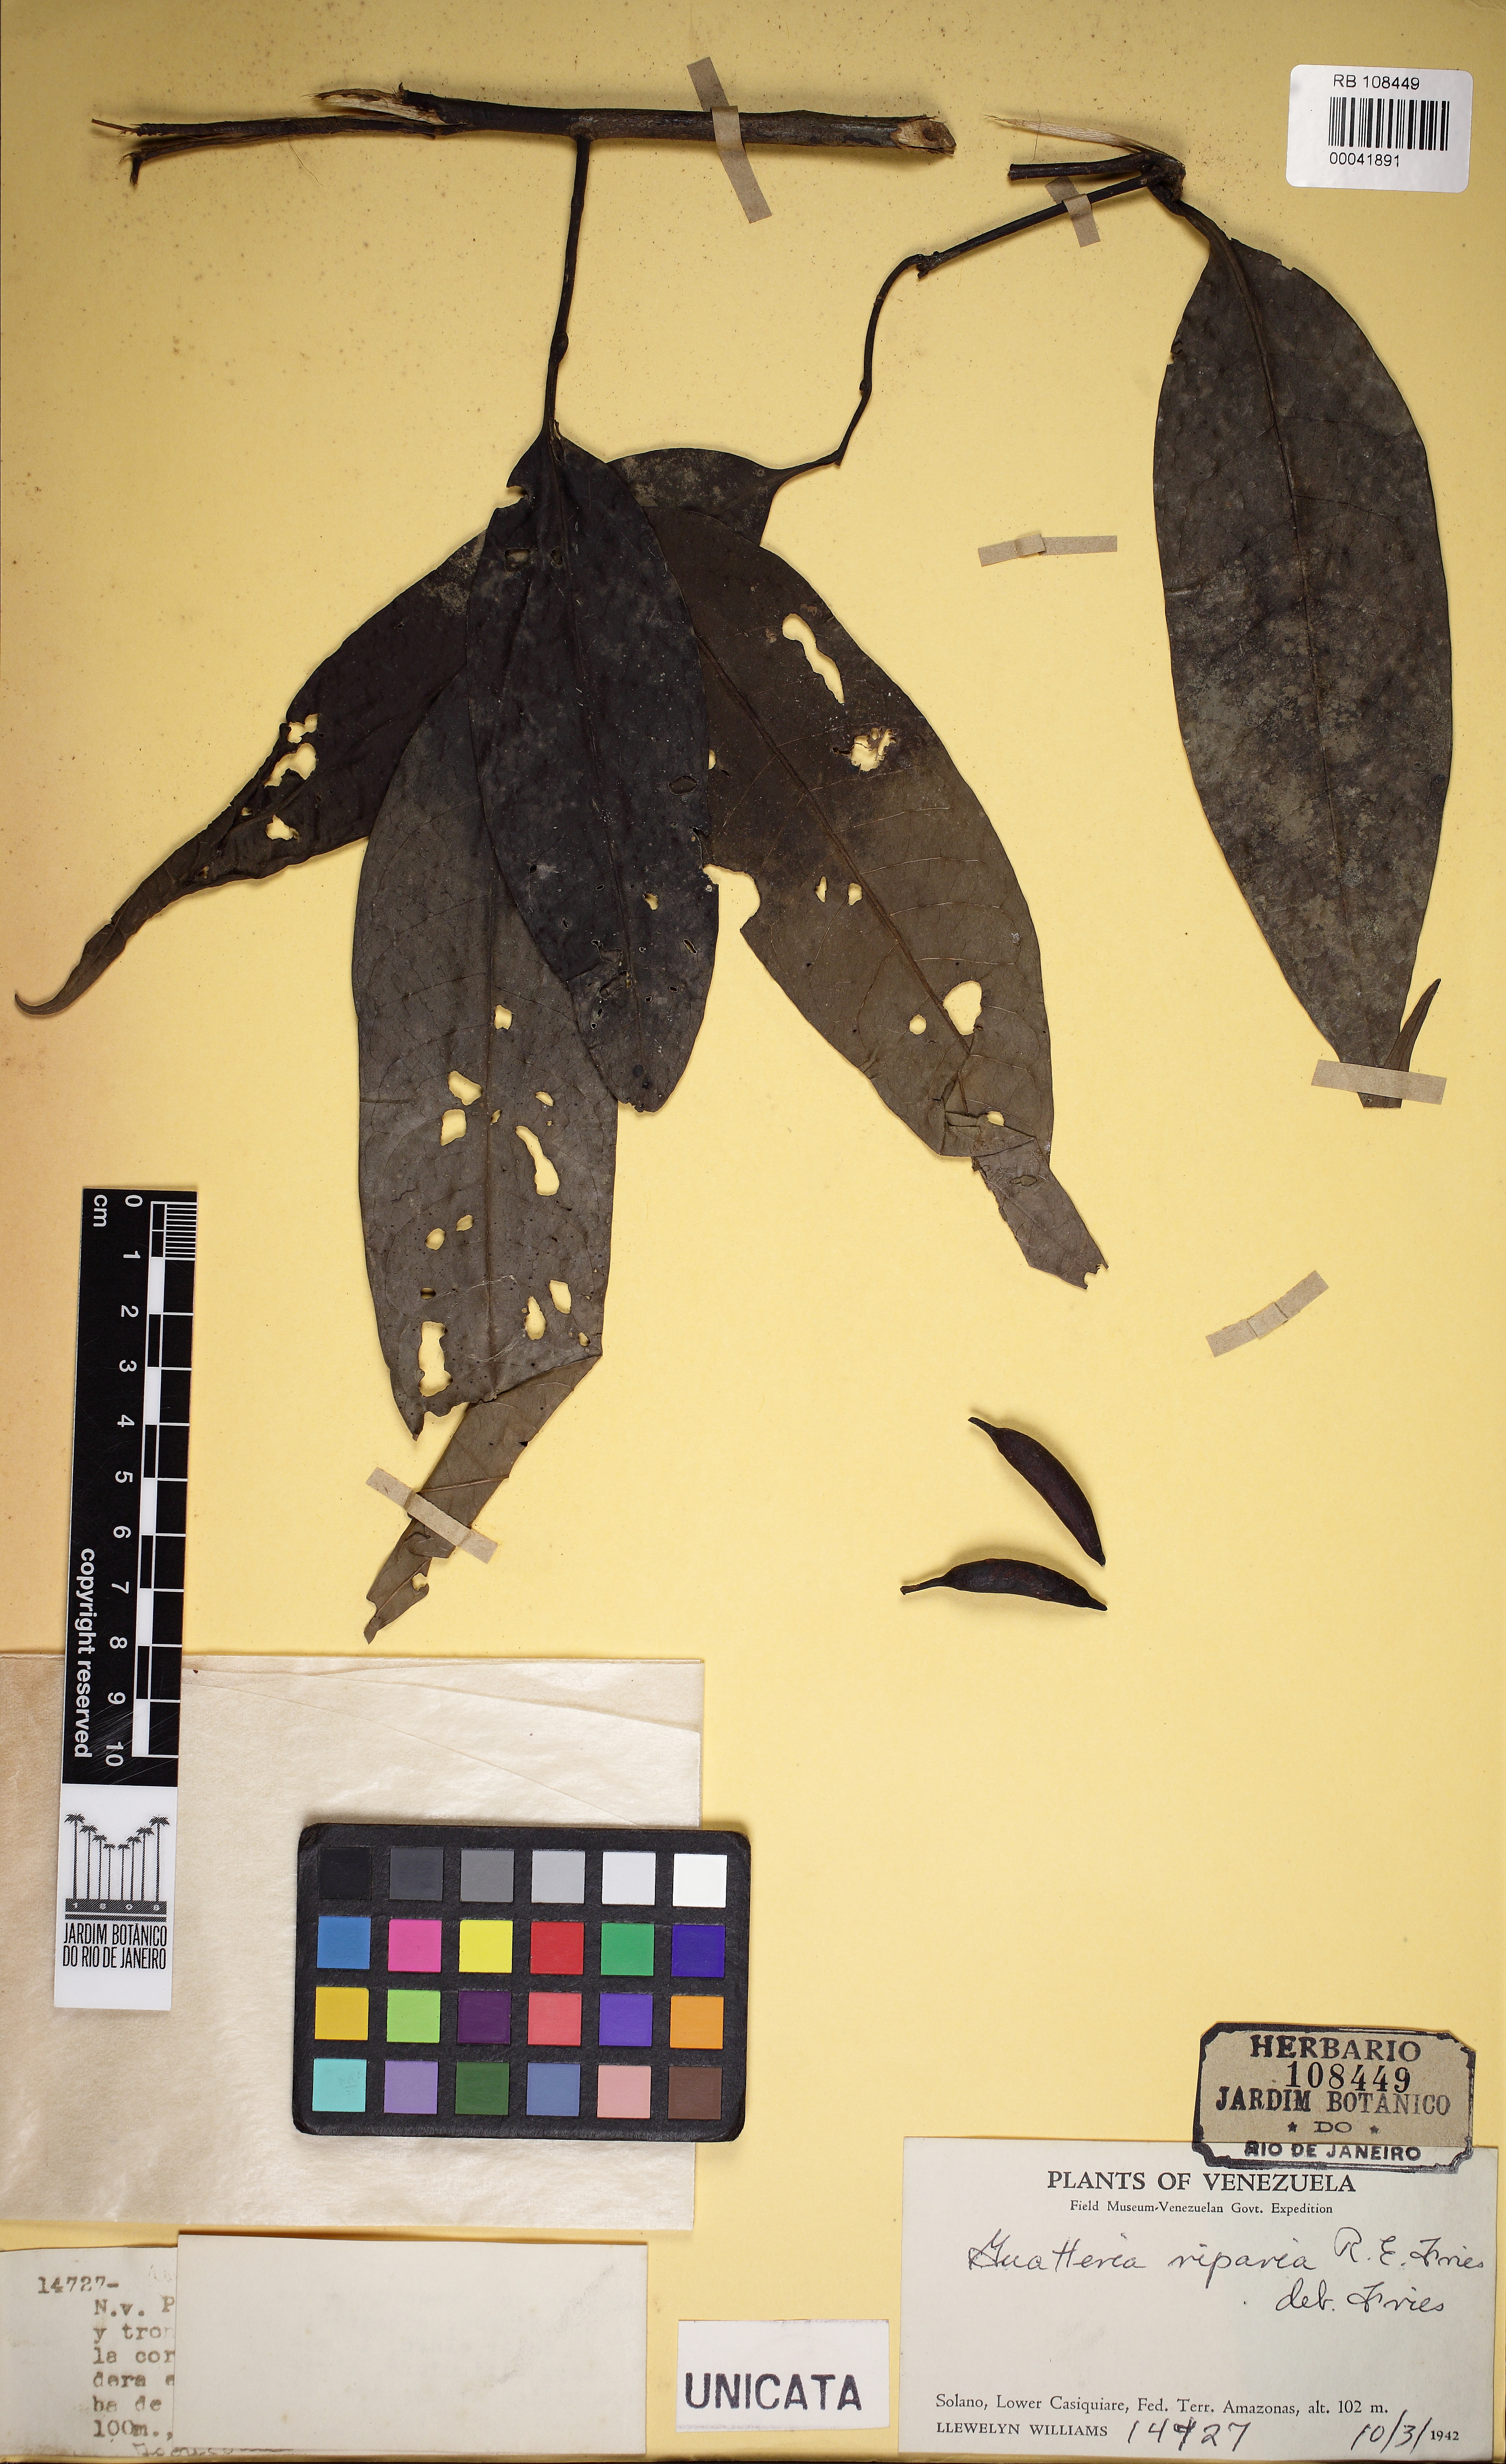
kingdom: Plantae
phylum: Tracheophyta
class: Magnoliopsida
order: Magnoliales
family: Annonaceae
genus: Guatteria
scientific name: Guatteria inundata
